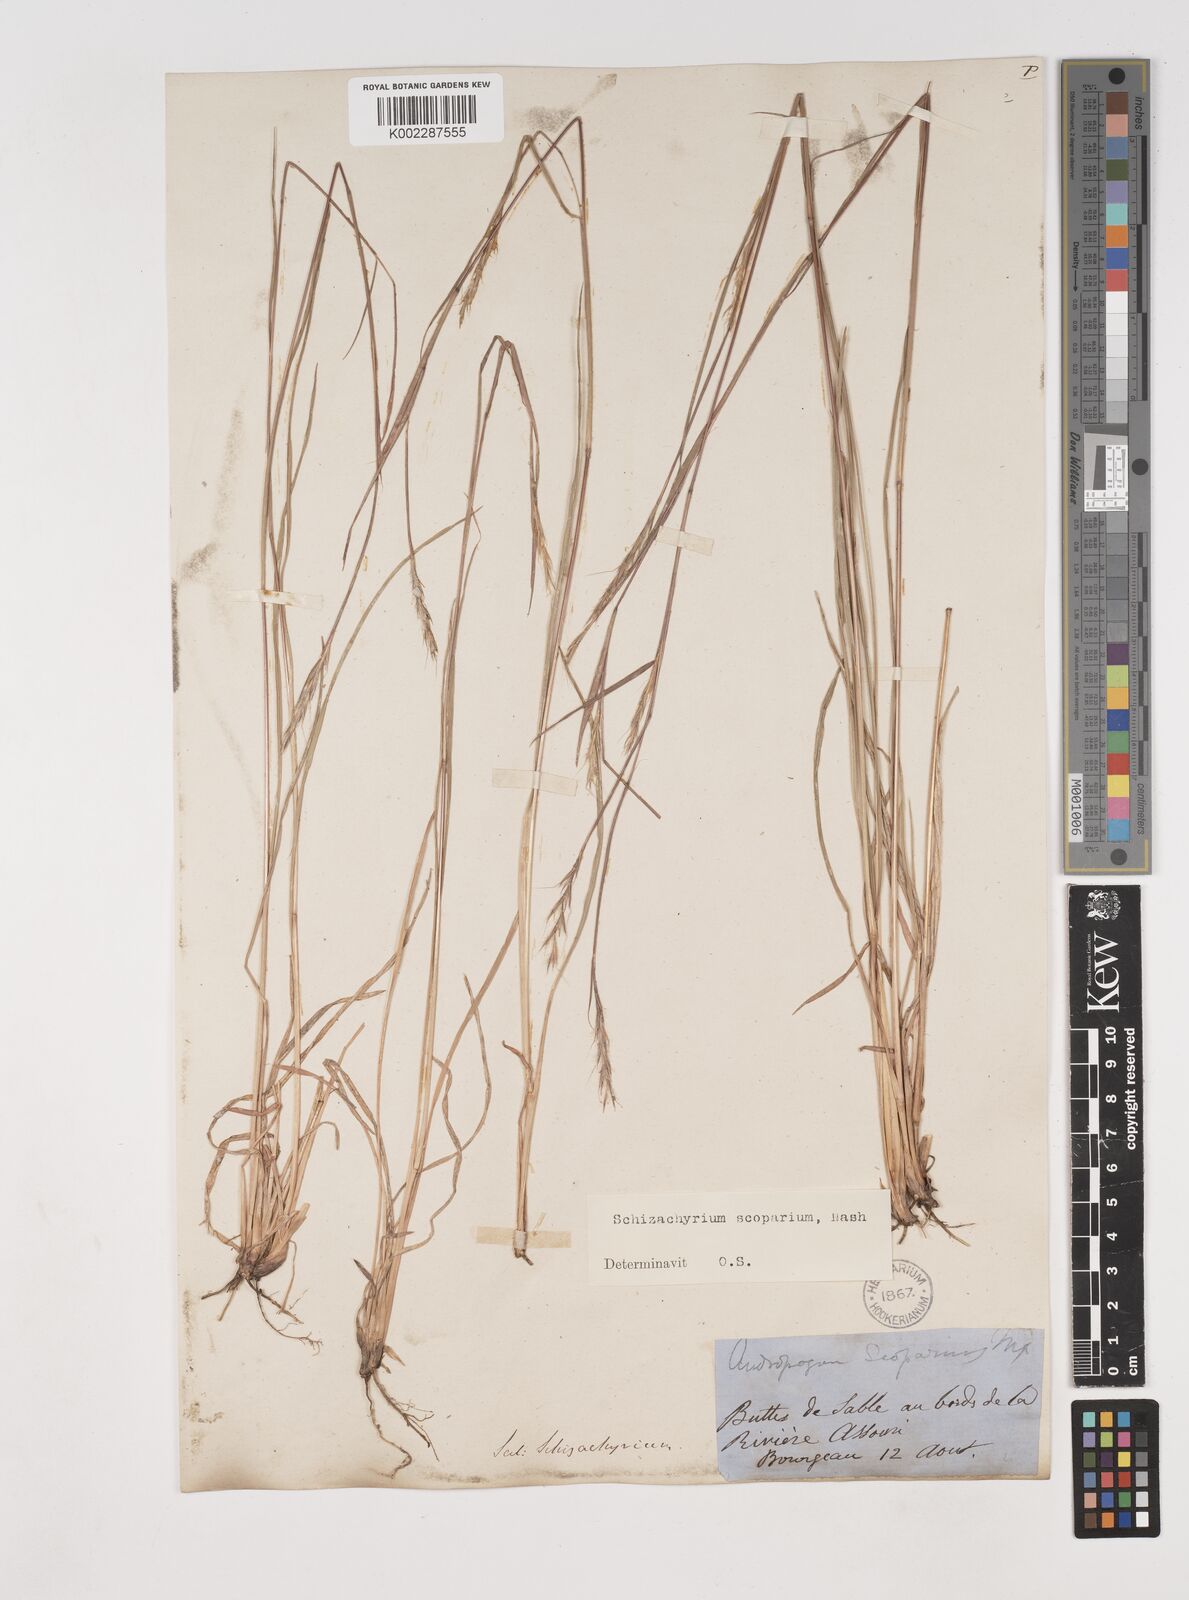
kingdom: Plantae
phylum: Tracheophyta
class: Liliopsida
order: Poales
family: Poaceae
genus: Schizachyrium
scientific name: Schizachyrium scoparium
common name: Little bluestem
